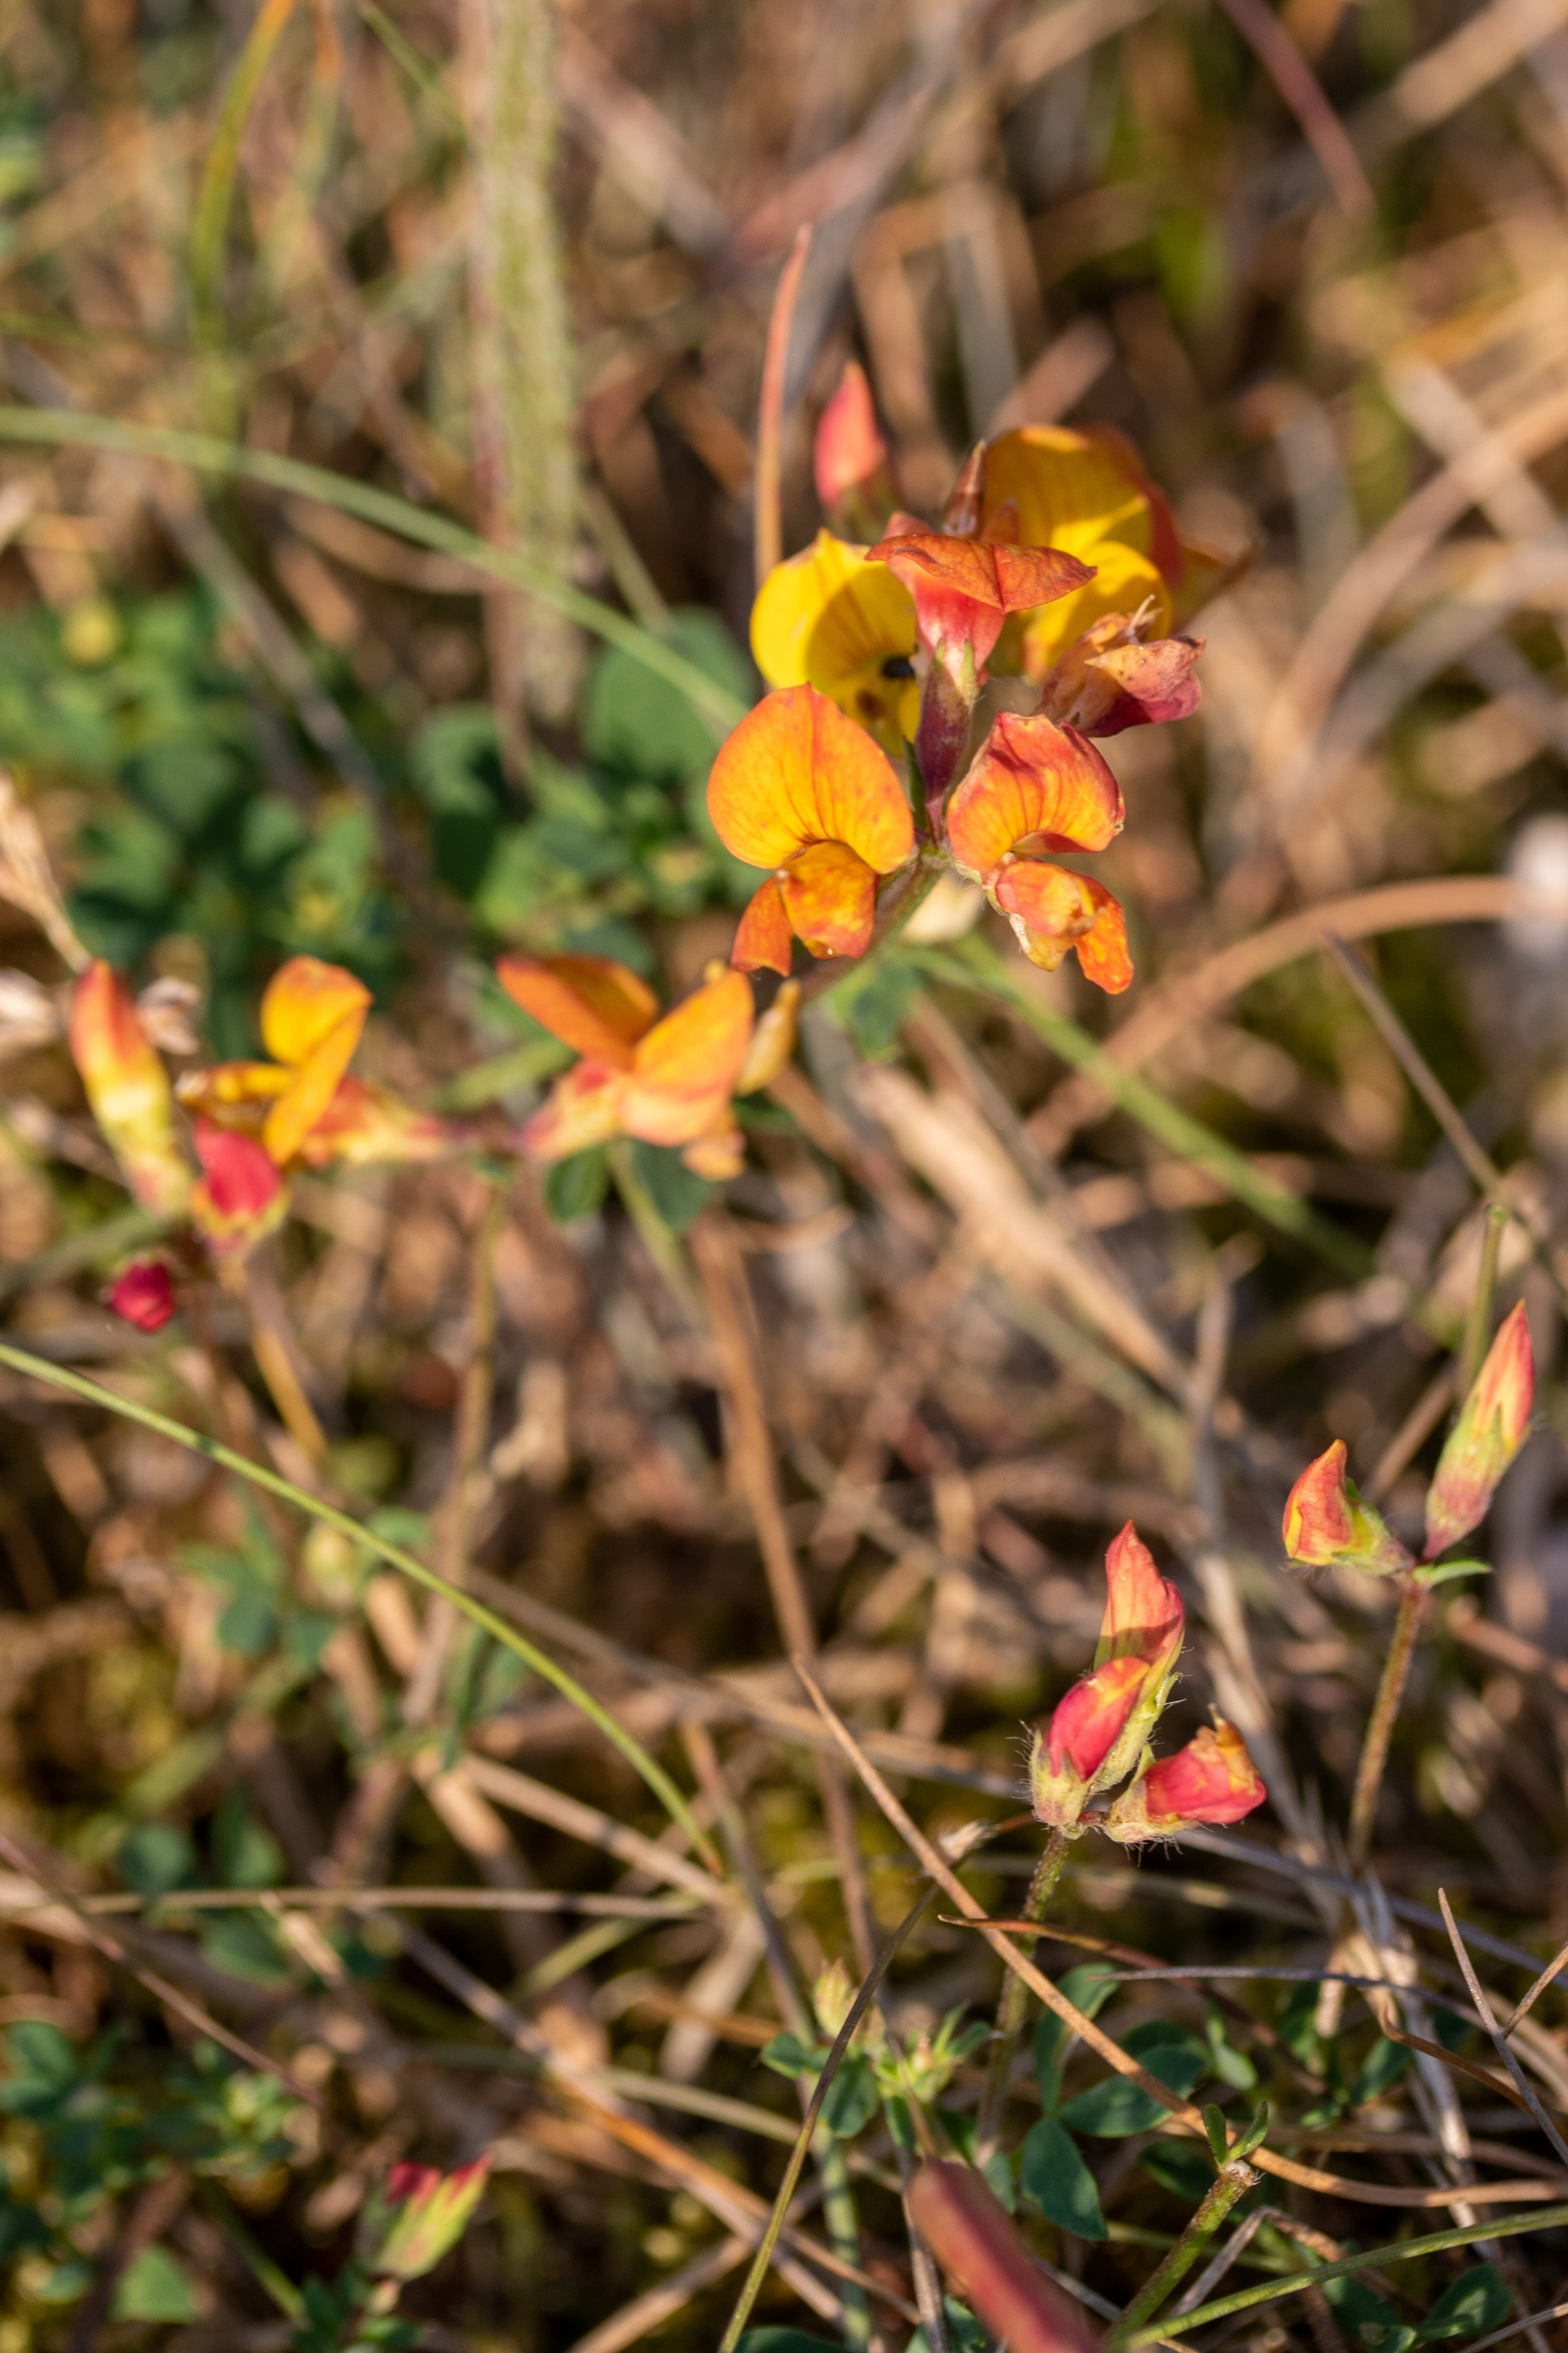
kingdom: Plantae
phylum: Tracheophyta
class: Magnoliopsida
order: Fabales
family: Fabaceae
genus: Lotus
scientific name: Lotus corniculatus
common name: Almindelig kællingetand
